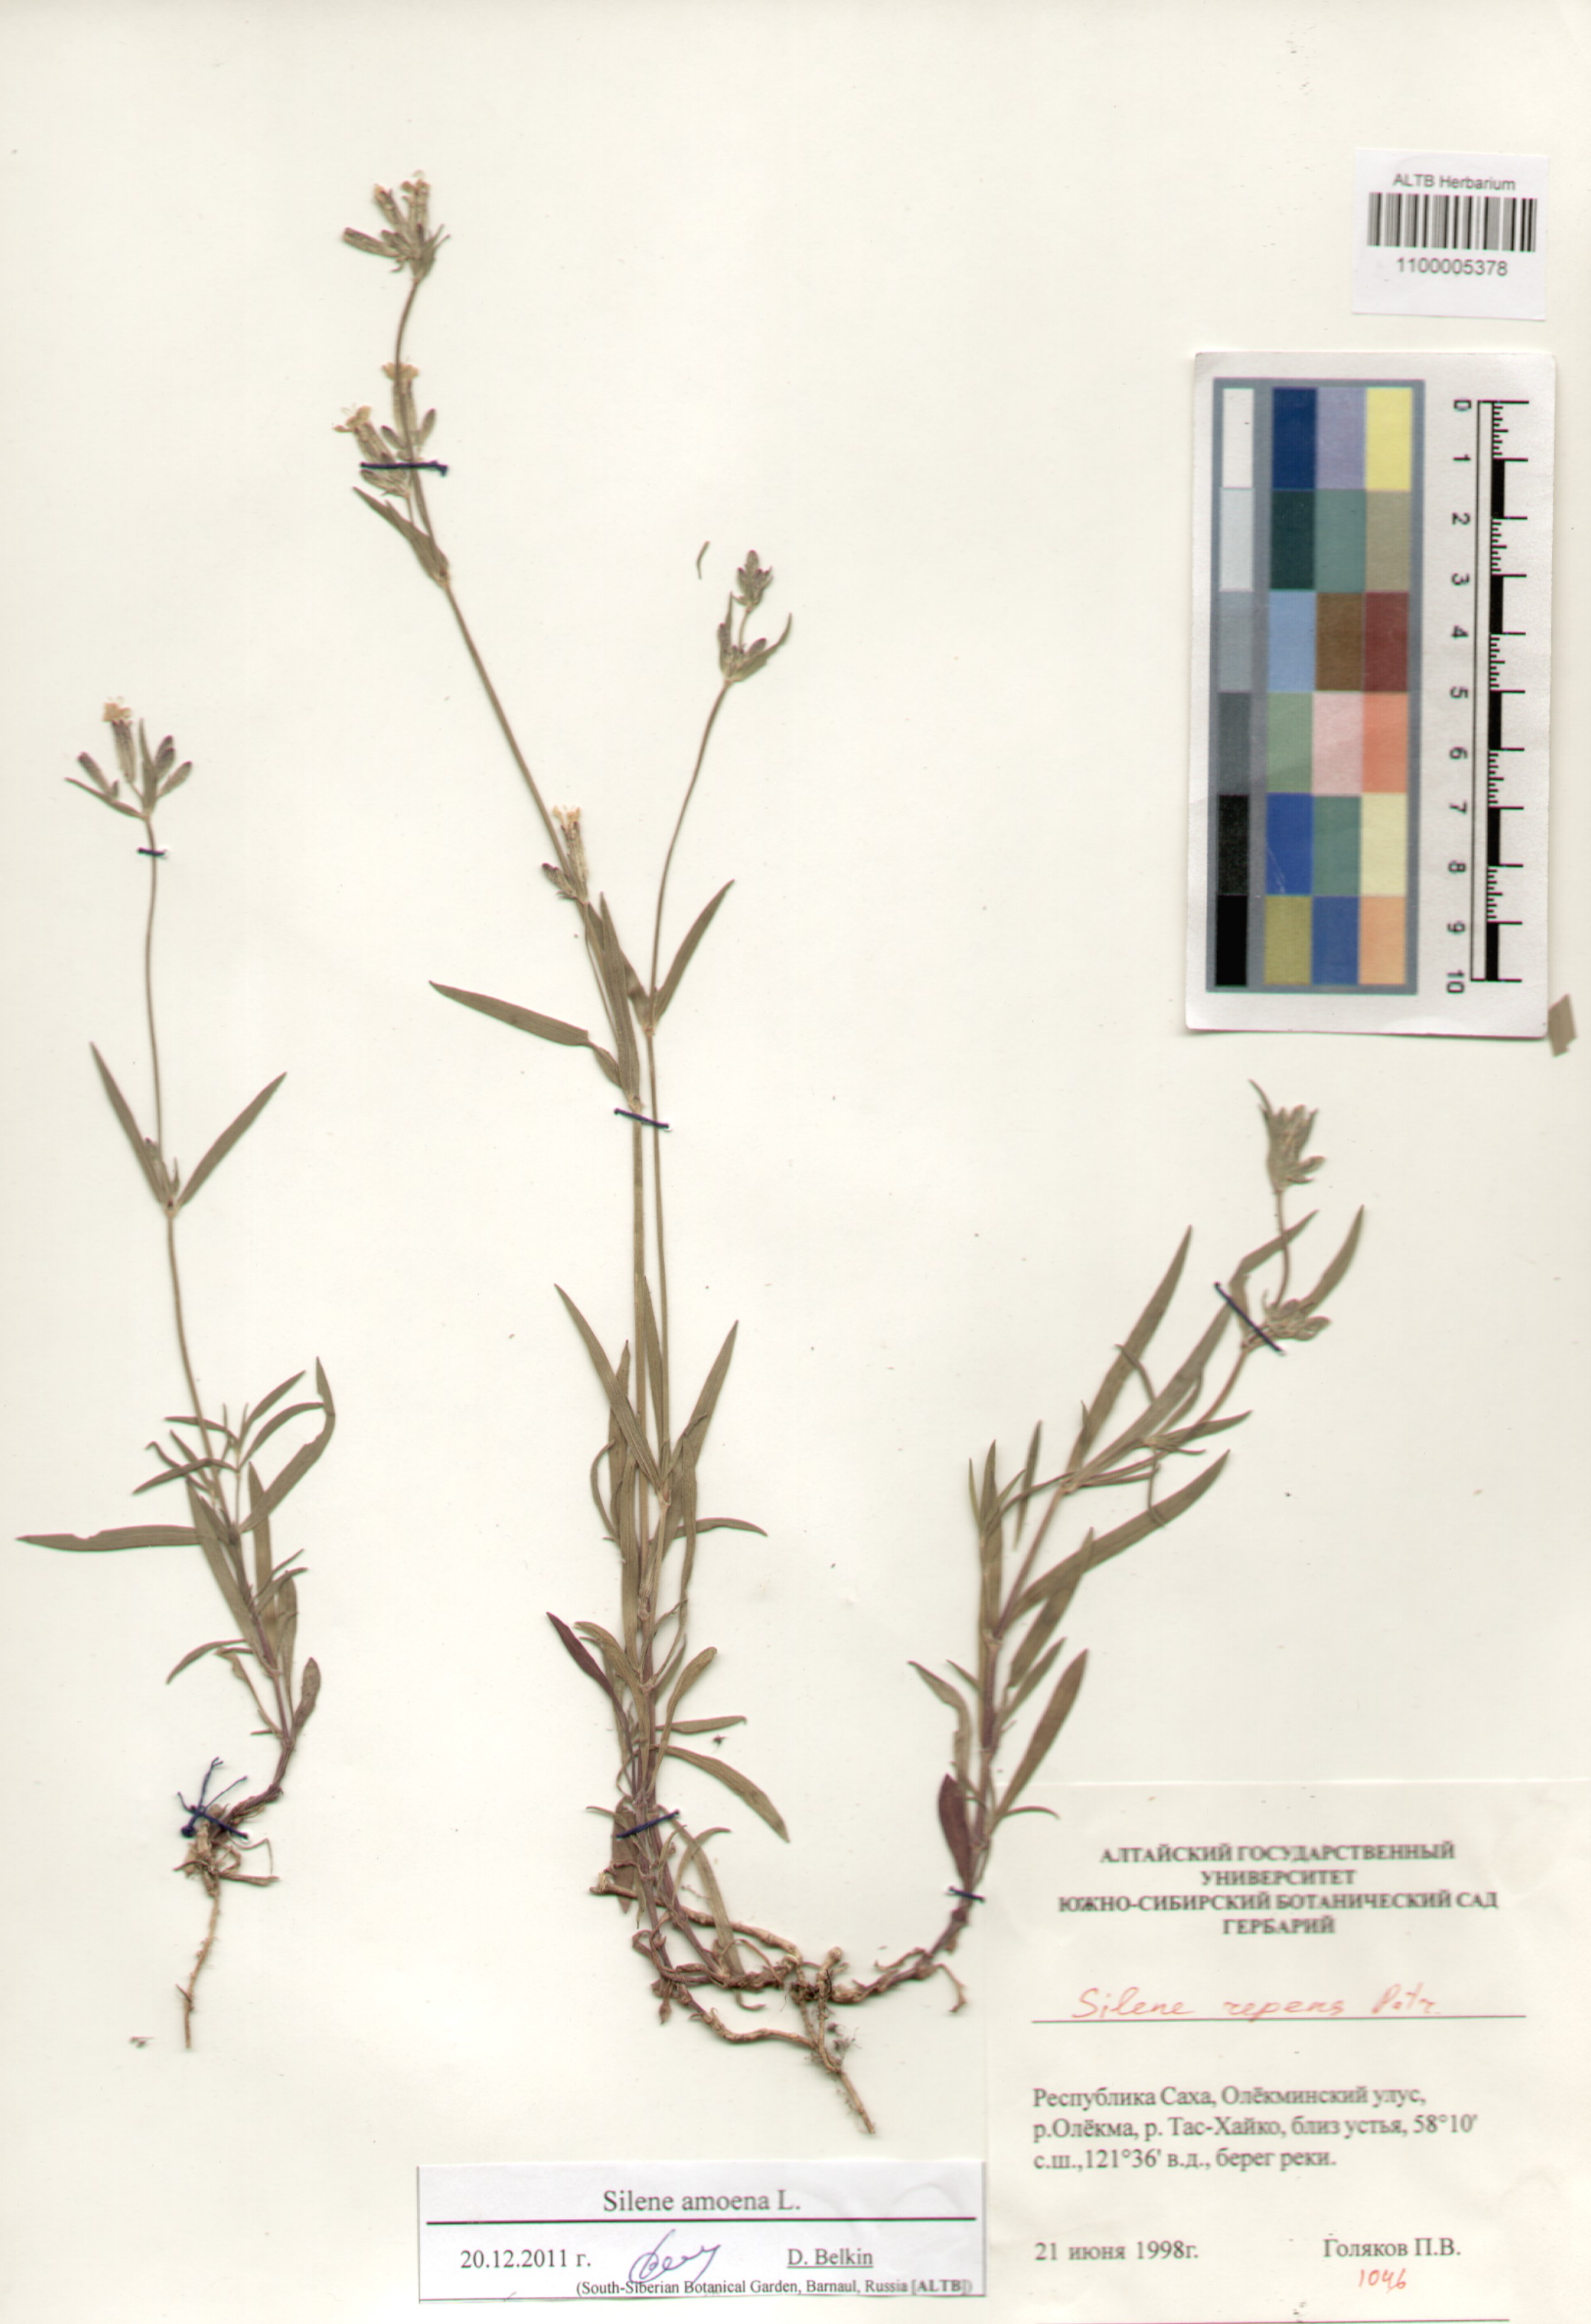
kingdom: Plantae
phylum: Tracheophyta
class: Magnoliopsida
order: Caryophyllales
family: Caryophyllaceae
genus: Silene
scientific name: Silene amoena
